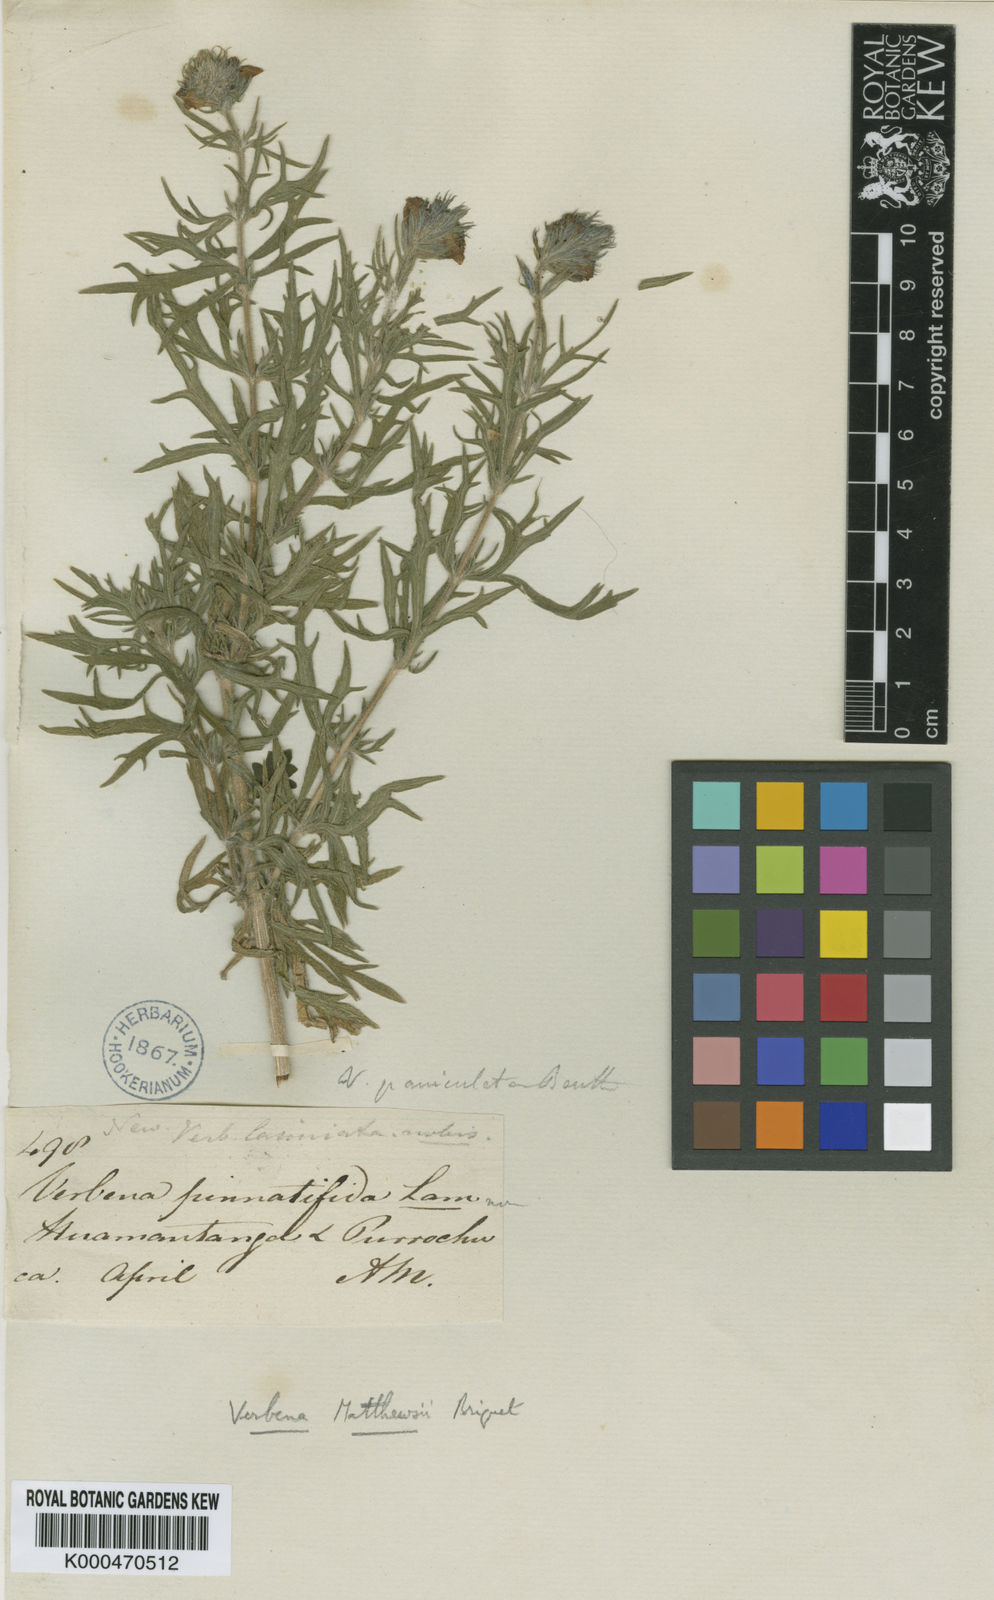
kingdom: Plantae
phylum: Tracheophyta
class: Magnoliopsida
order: Lamiales
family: Verbenaceae
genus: Junellia
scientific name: Junellia fasciculata
